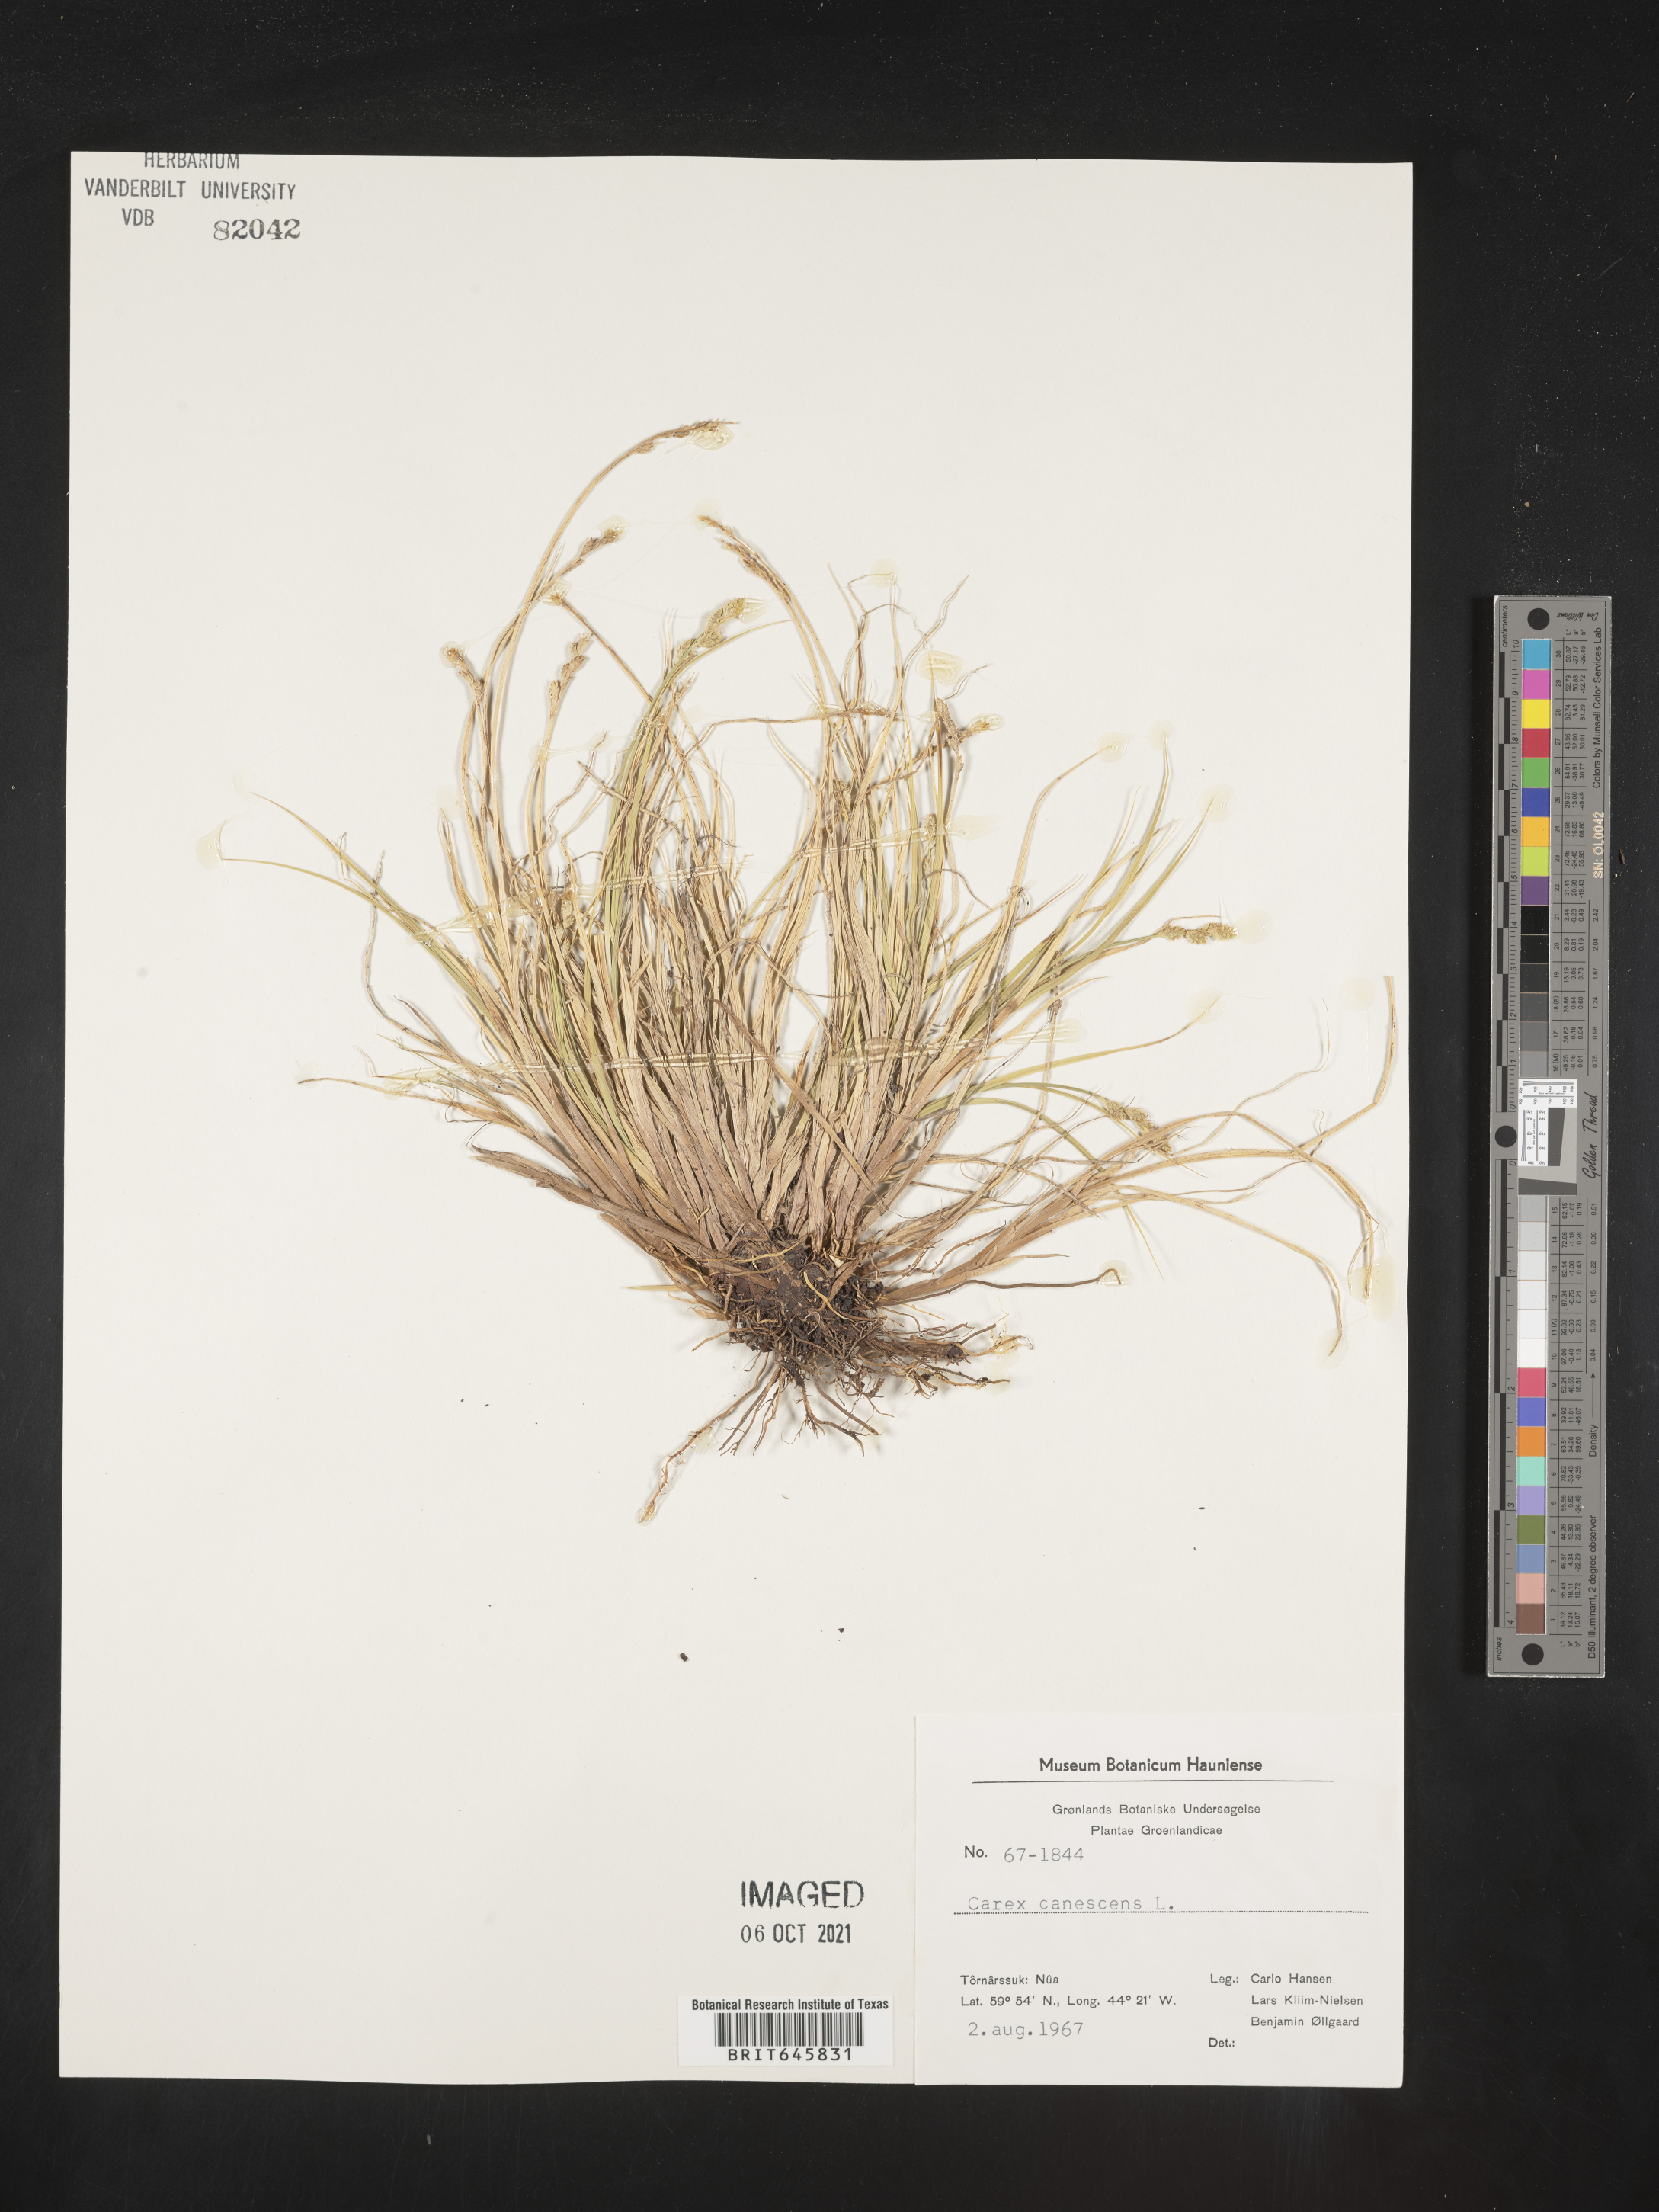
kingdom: Plantae
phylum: Tracheophyta
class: Liliopsida
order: Poales
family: Cyperaceae
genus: Carex
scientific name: Carex canescens
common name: White sedge
